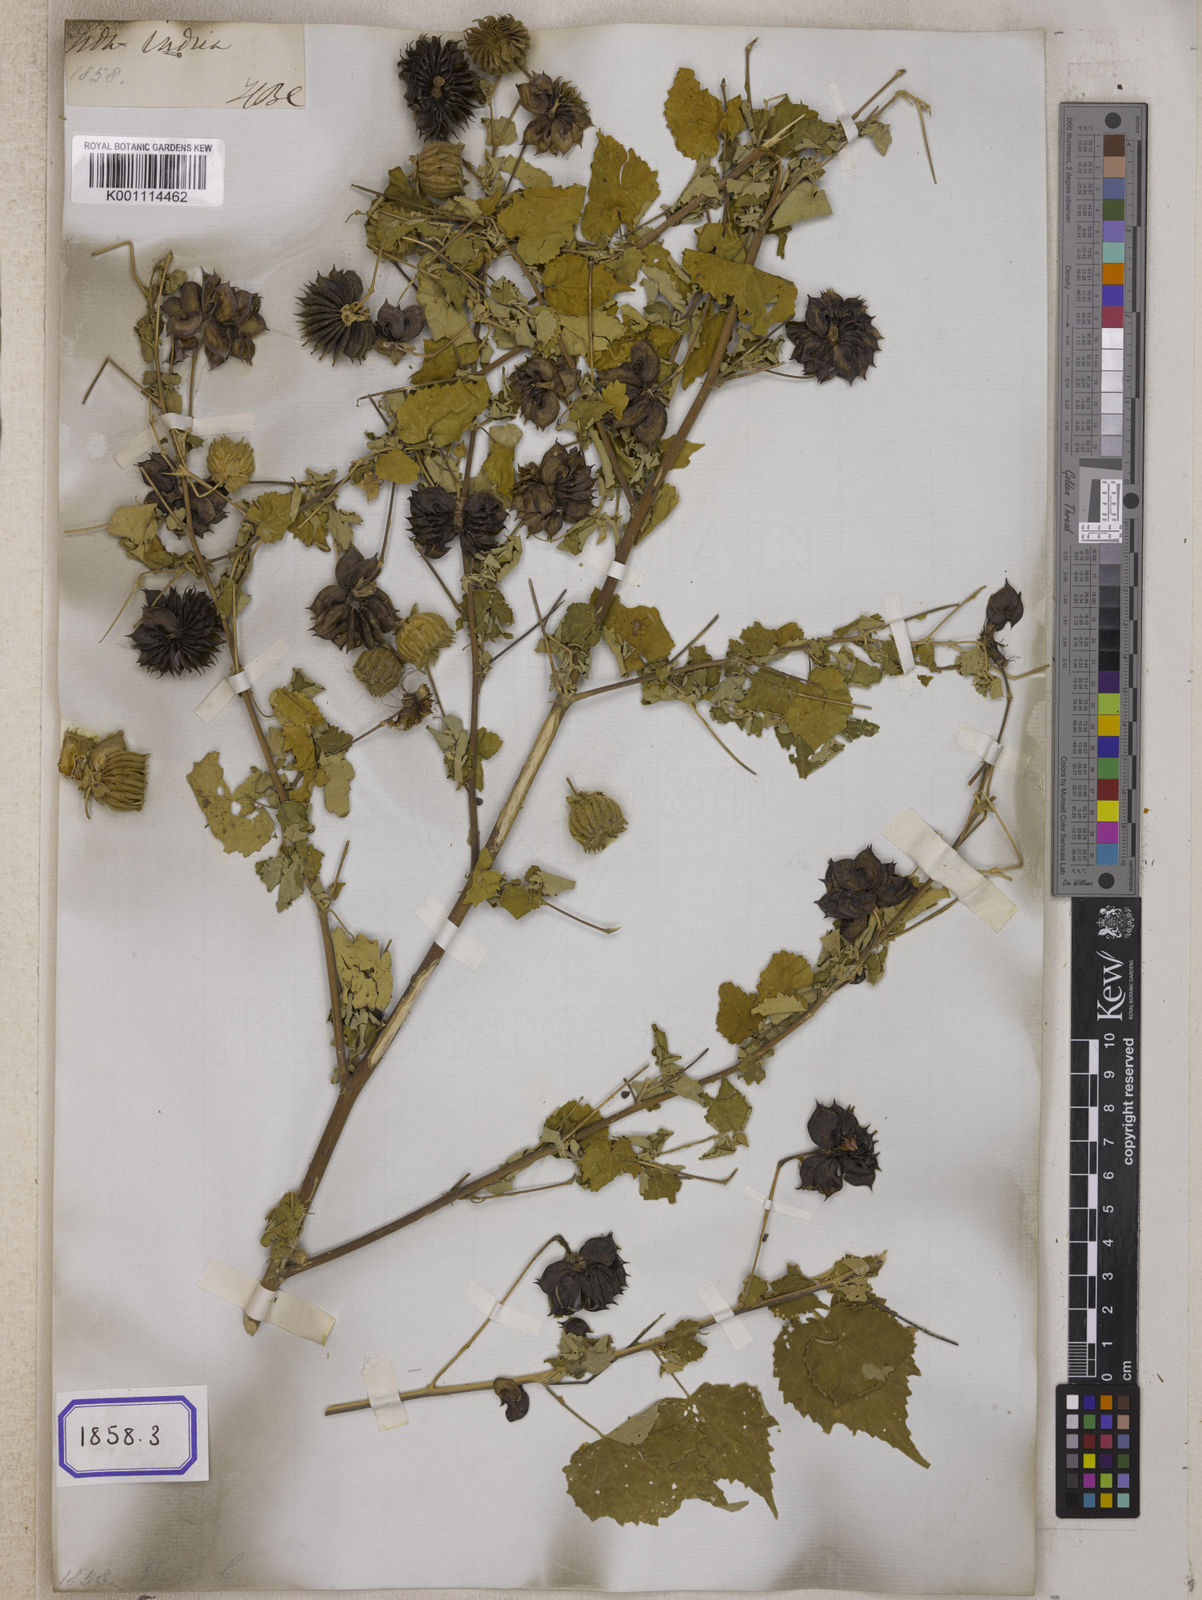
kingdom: Plantae
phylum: Tracheophyta
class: Magnoliopsida
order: Malvales
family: Malvaceae
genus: Abutilon
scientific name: Abutilon indicum
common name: Indian abutilon
